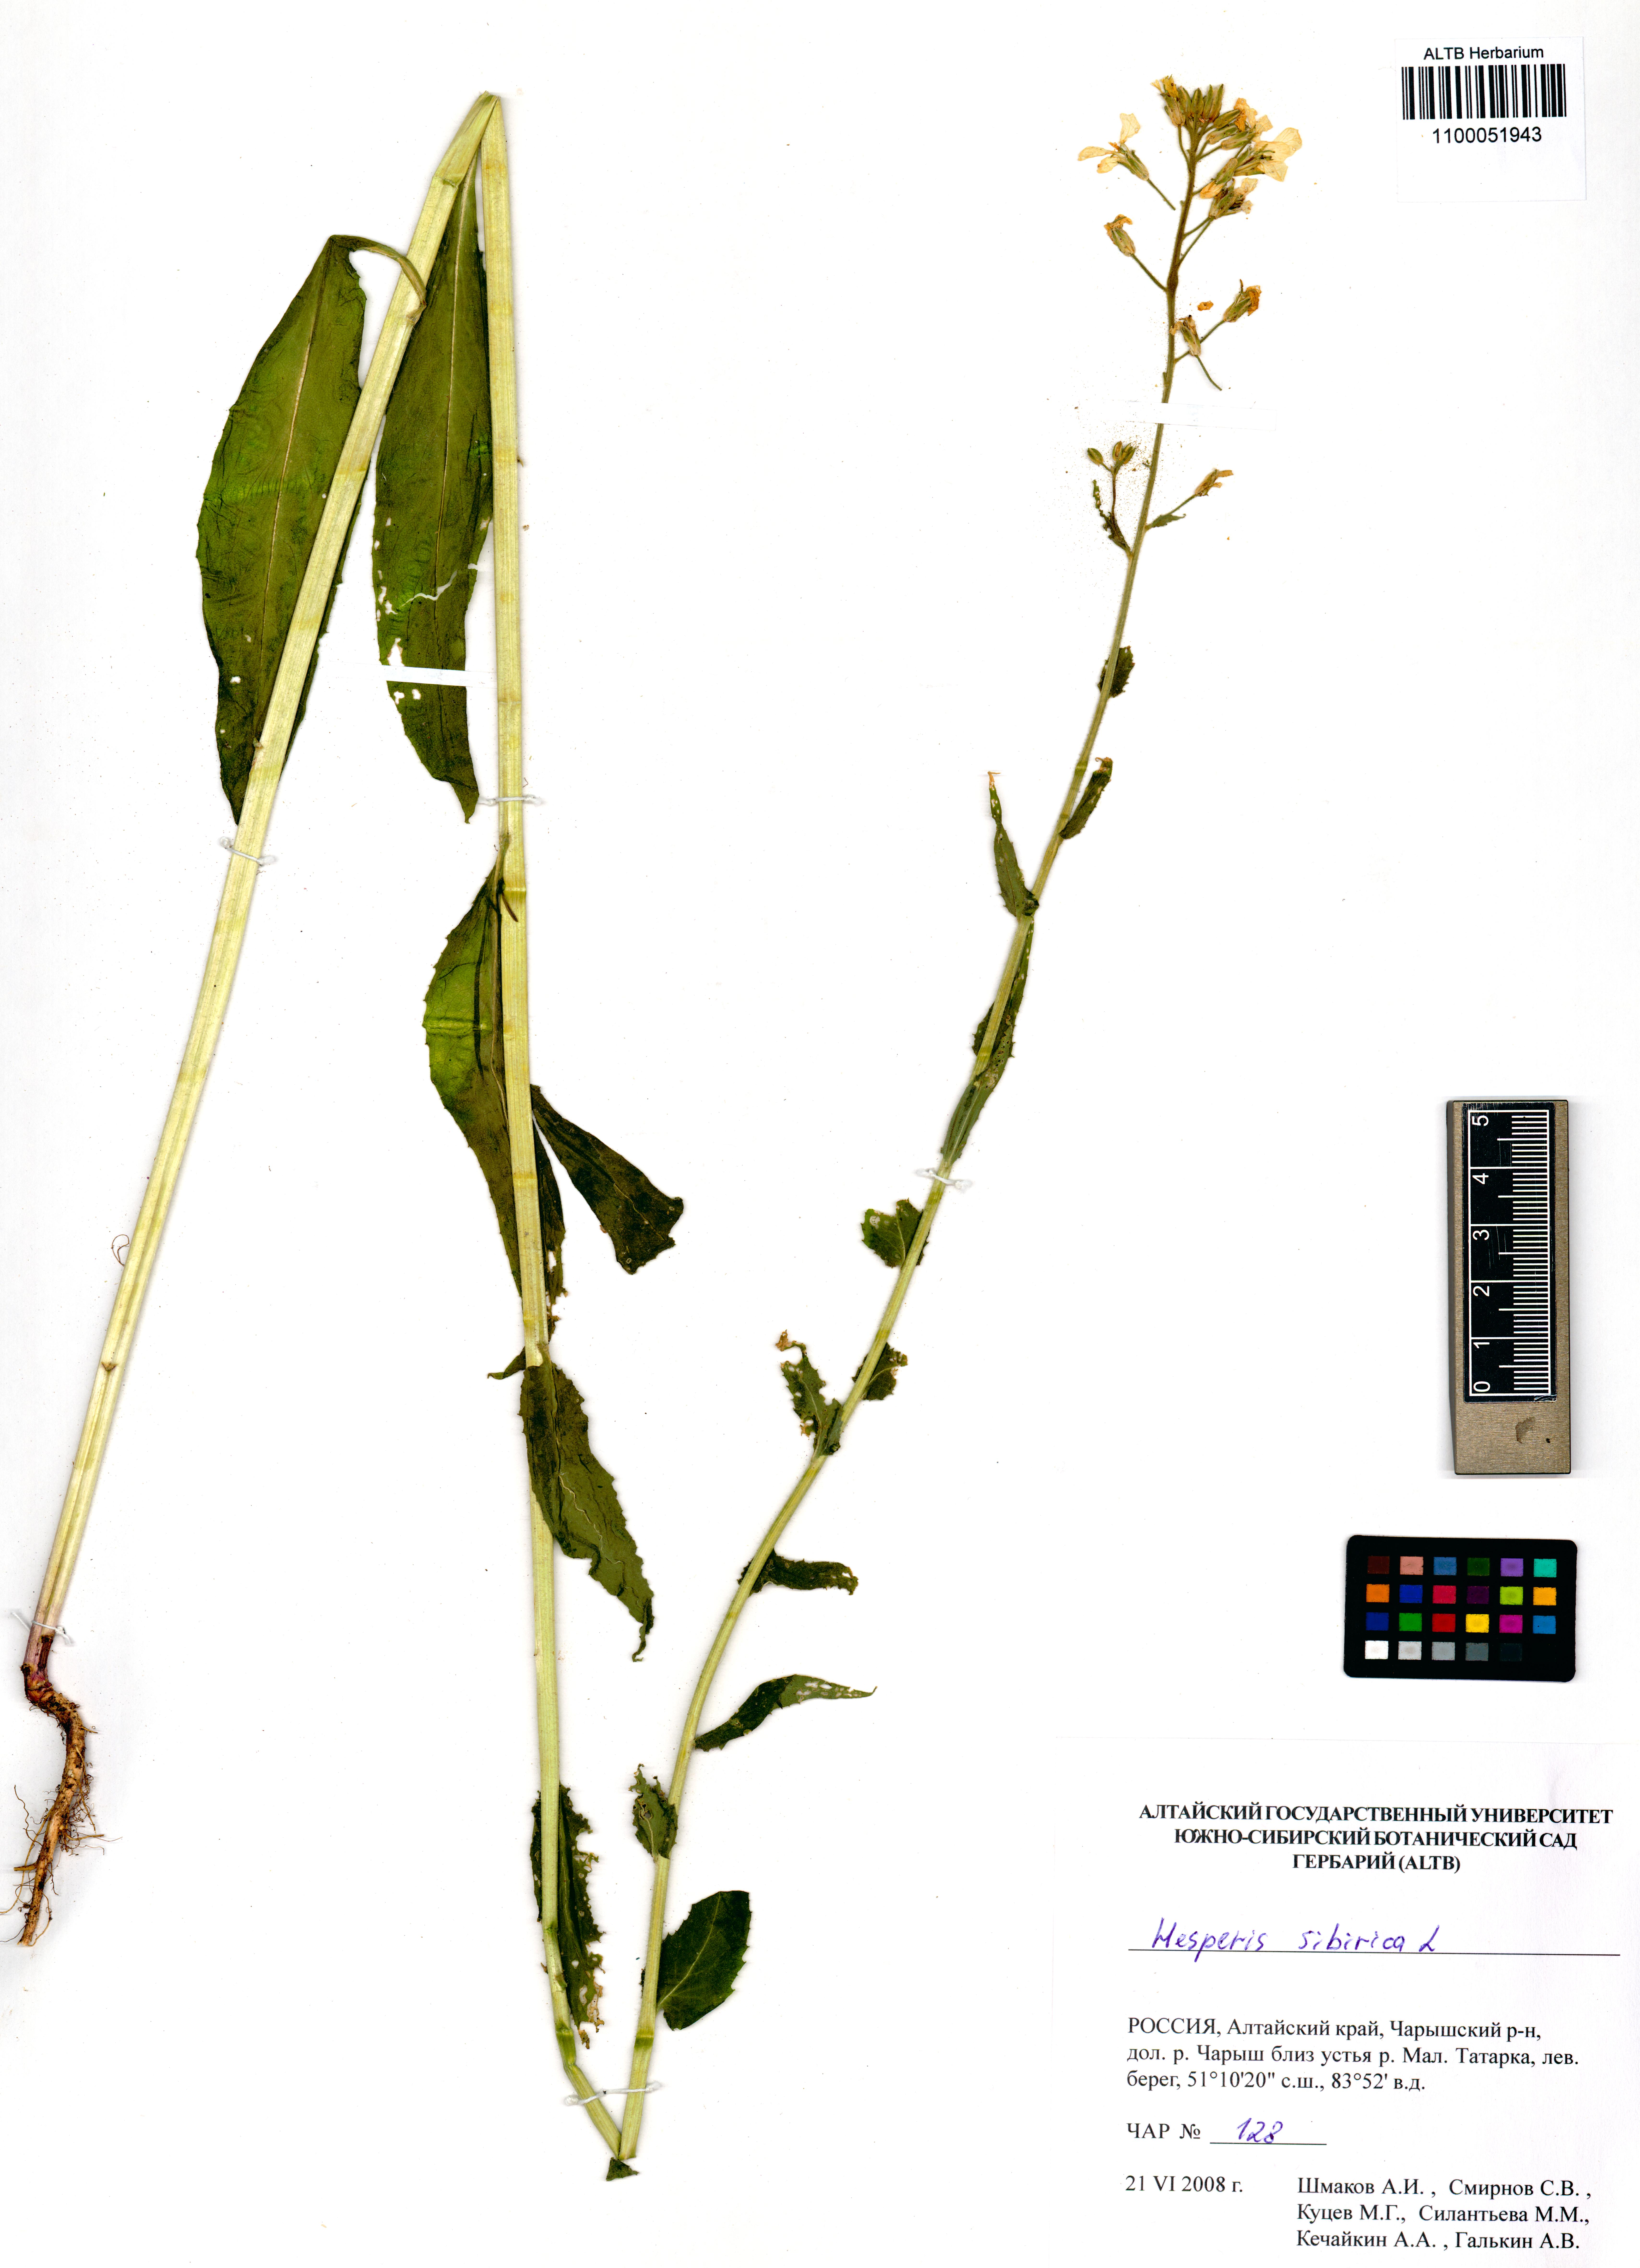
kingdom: Plantae
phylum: Tracheophyta
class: Magnoliopsida
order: Brassicales
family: Brassicaceae
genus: Hesperis
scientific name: Hesperis sibirica
